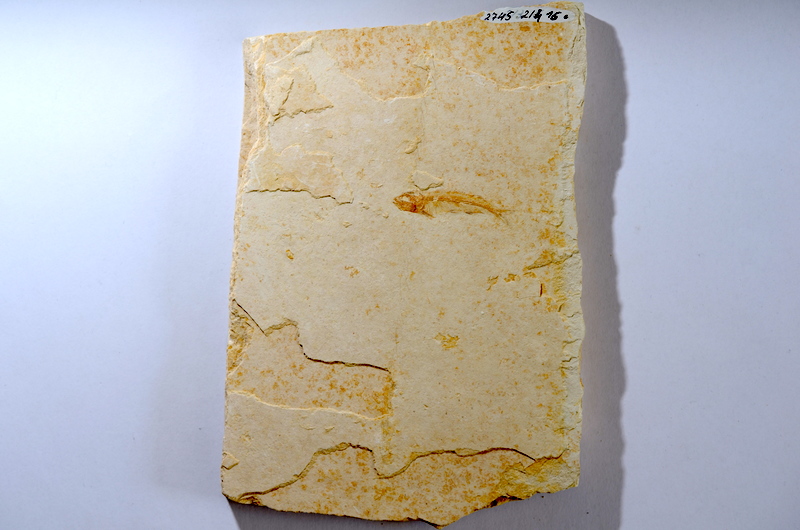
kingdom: Animalia
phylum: Chordata
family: Allothrissopidae
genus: Allothrissops
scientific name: Allothrissops mesogaster
